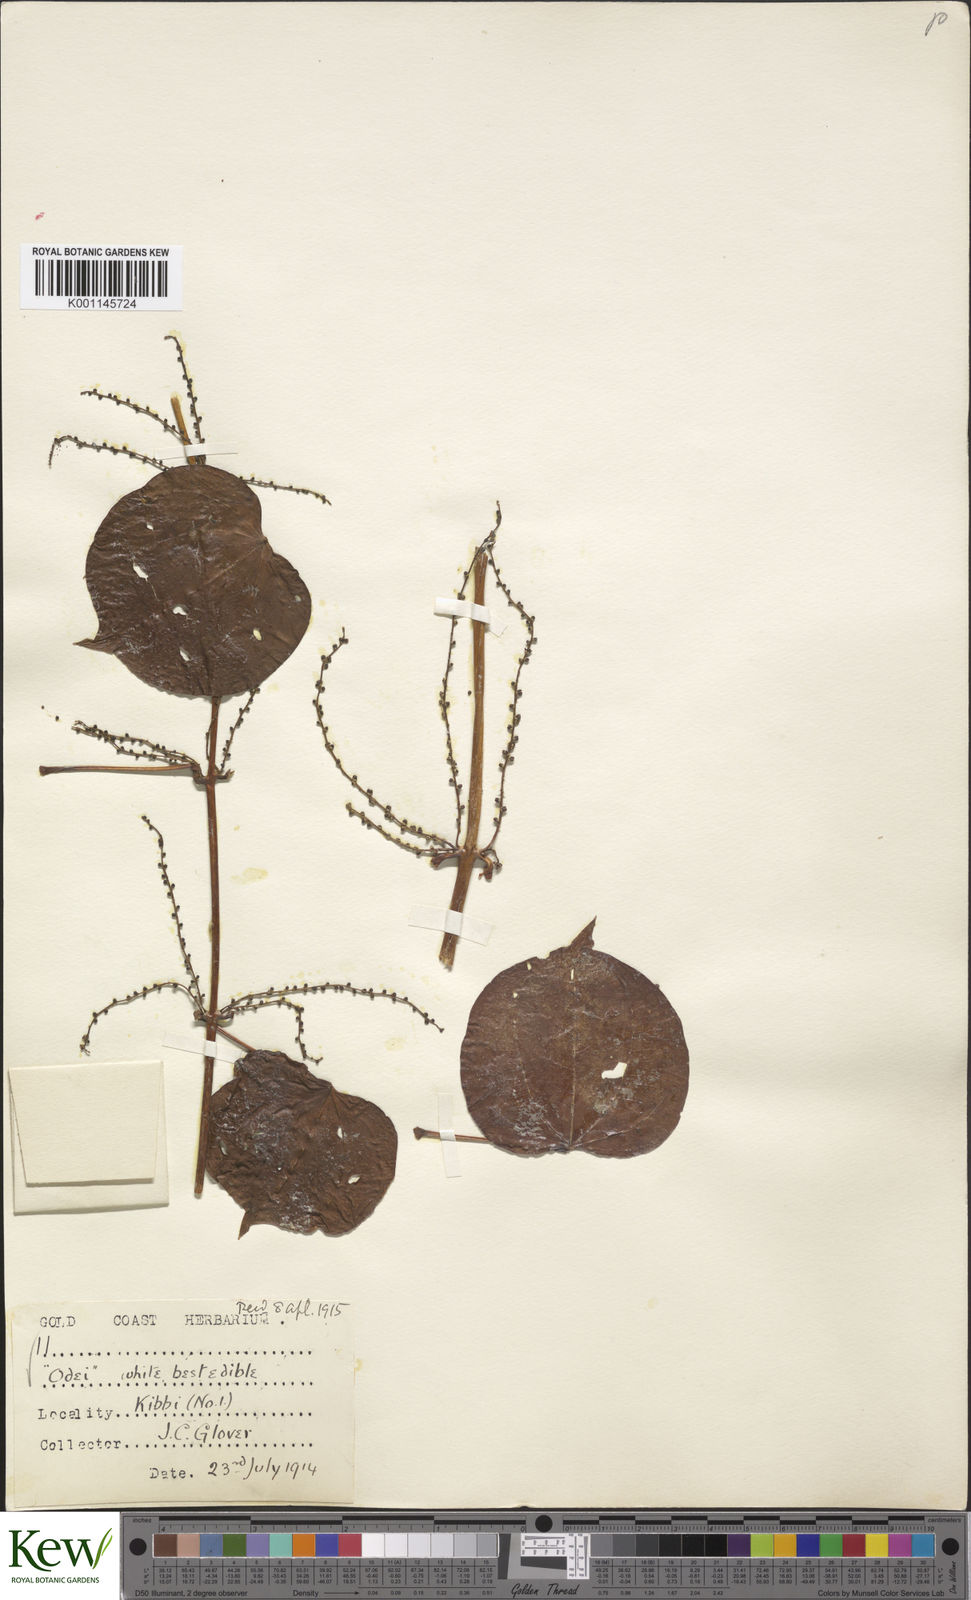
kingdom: Plantae
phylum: Tracheophyta
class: Liliopsida
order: Dioscoreales
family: Dioscoreaceae
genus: Dioscorea
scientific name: Dioscorea cayenensis
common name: Attoto yam
